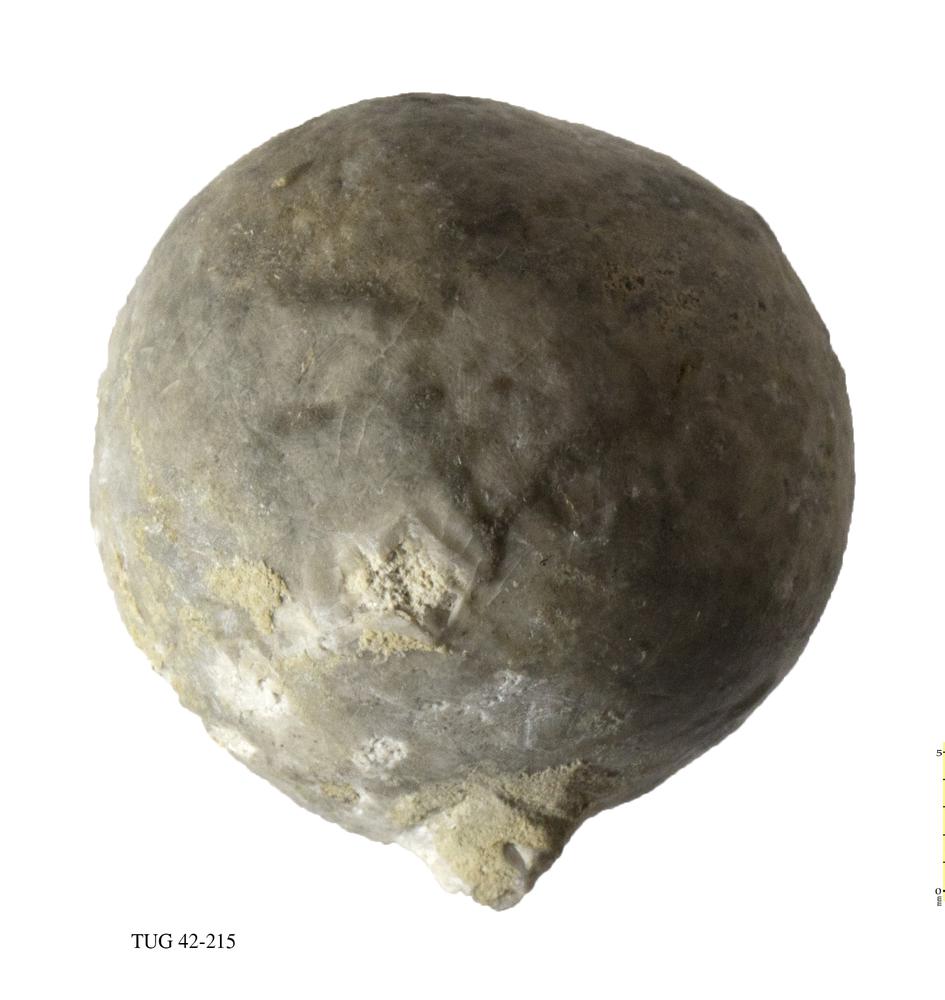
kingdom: Animalia
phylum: Echinodermata
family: Echinosphaeritidae
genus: Echinosphaerites
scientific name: Echinosphaerites Echinus aurantium
